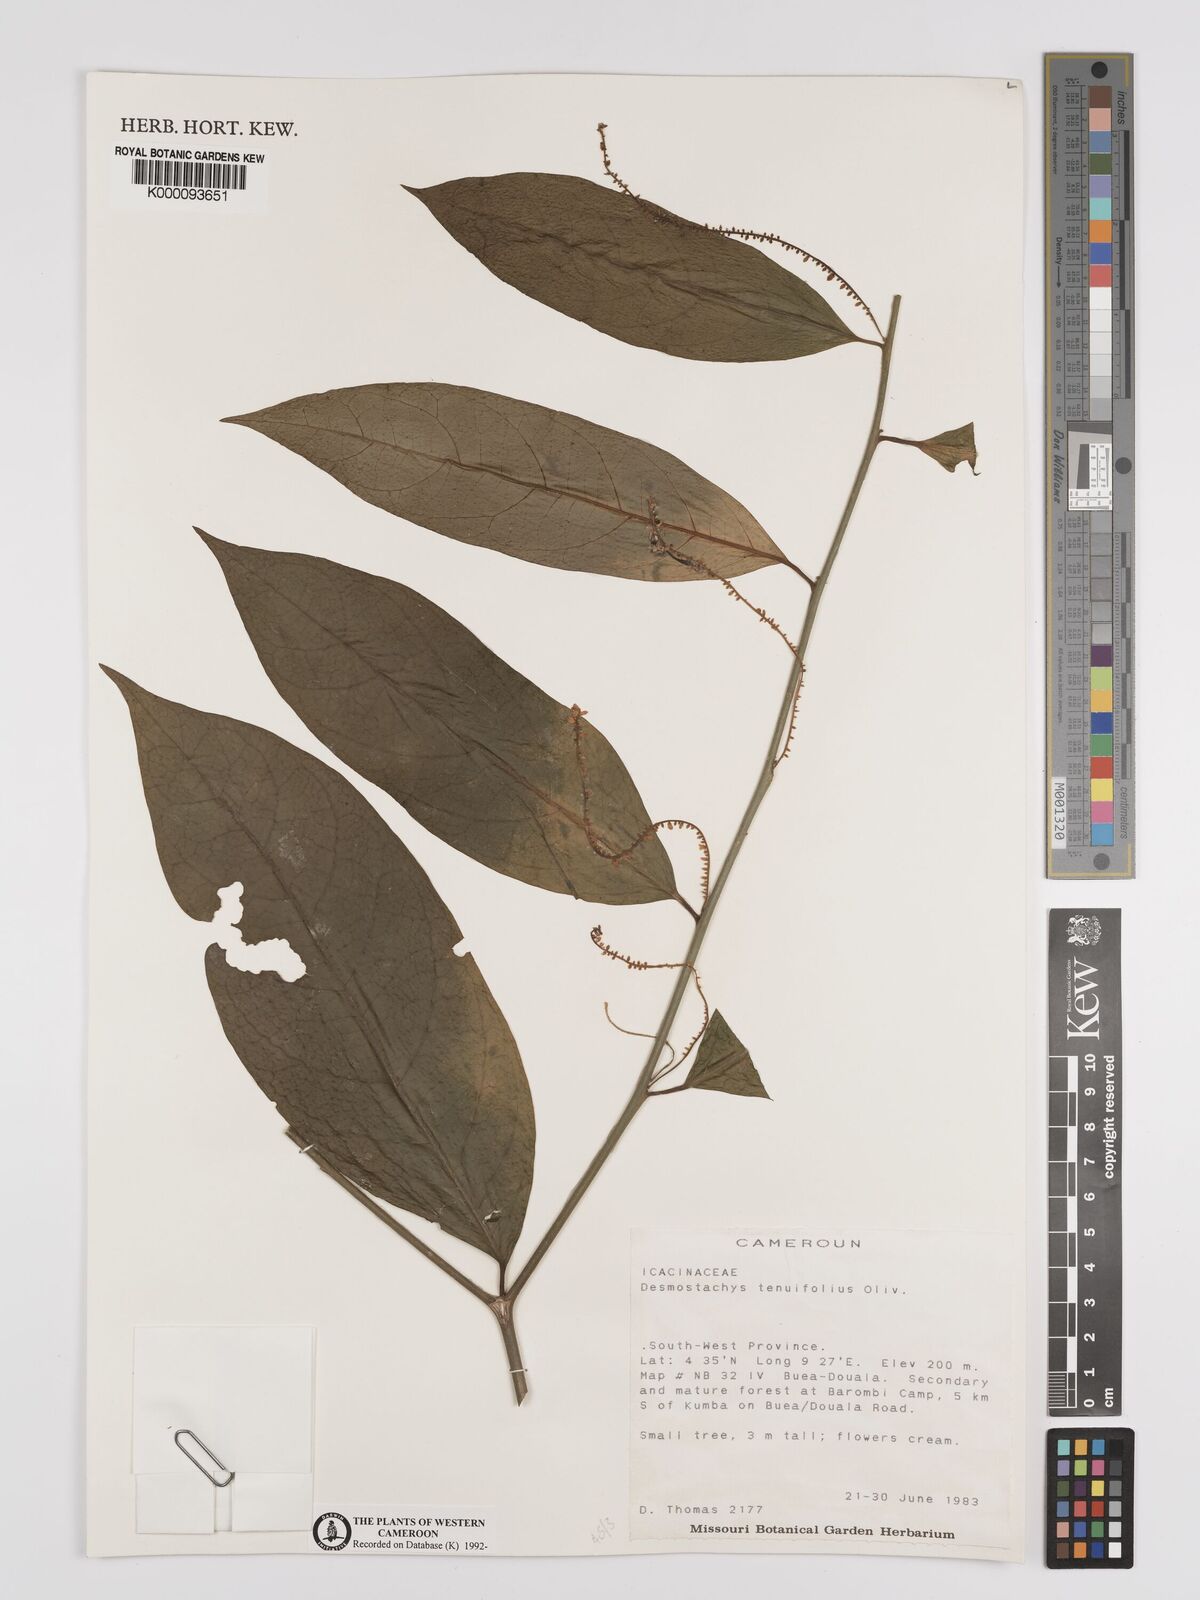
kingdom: Plantae
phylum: Tracheophyta
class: Magnoliopsida
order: Icacinales
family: Icacinaceae
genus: Vadensea
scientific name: Vadensea tenuifolia
